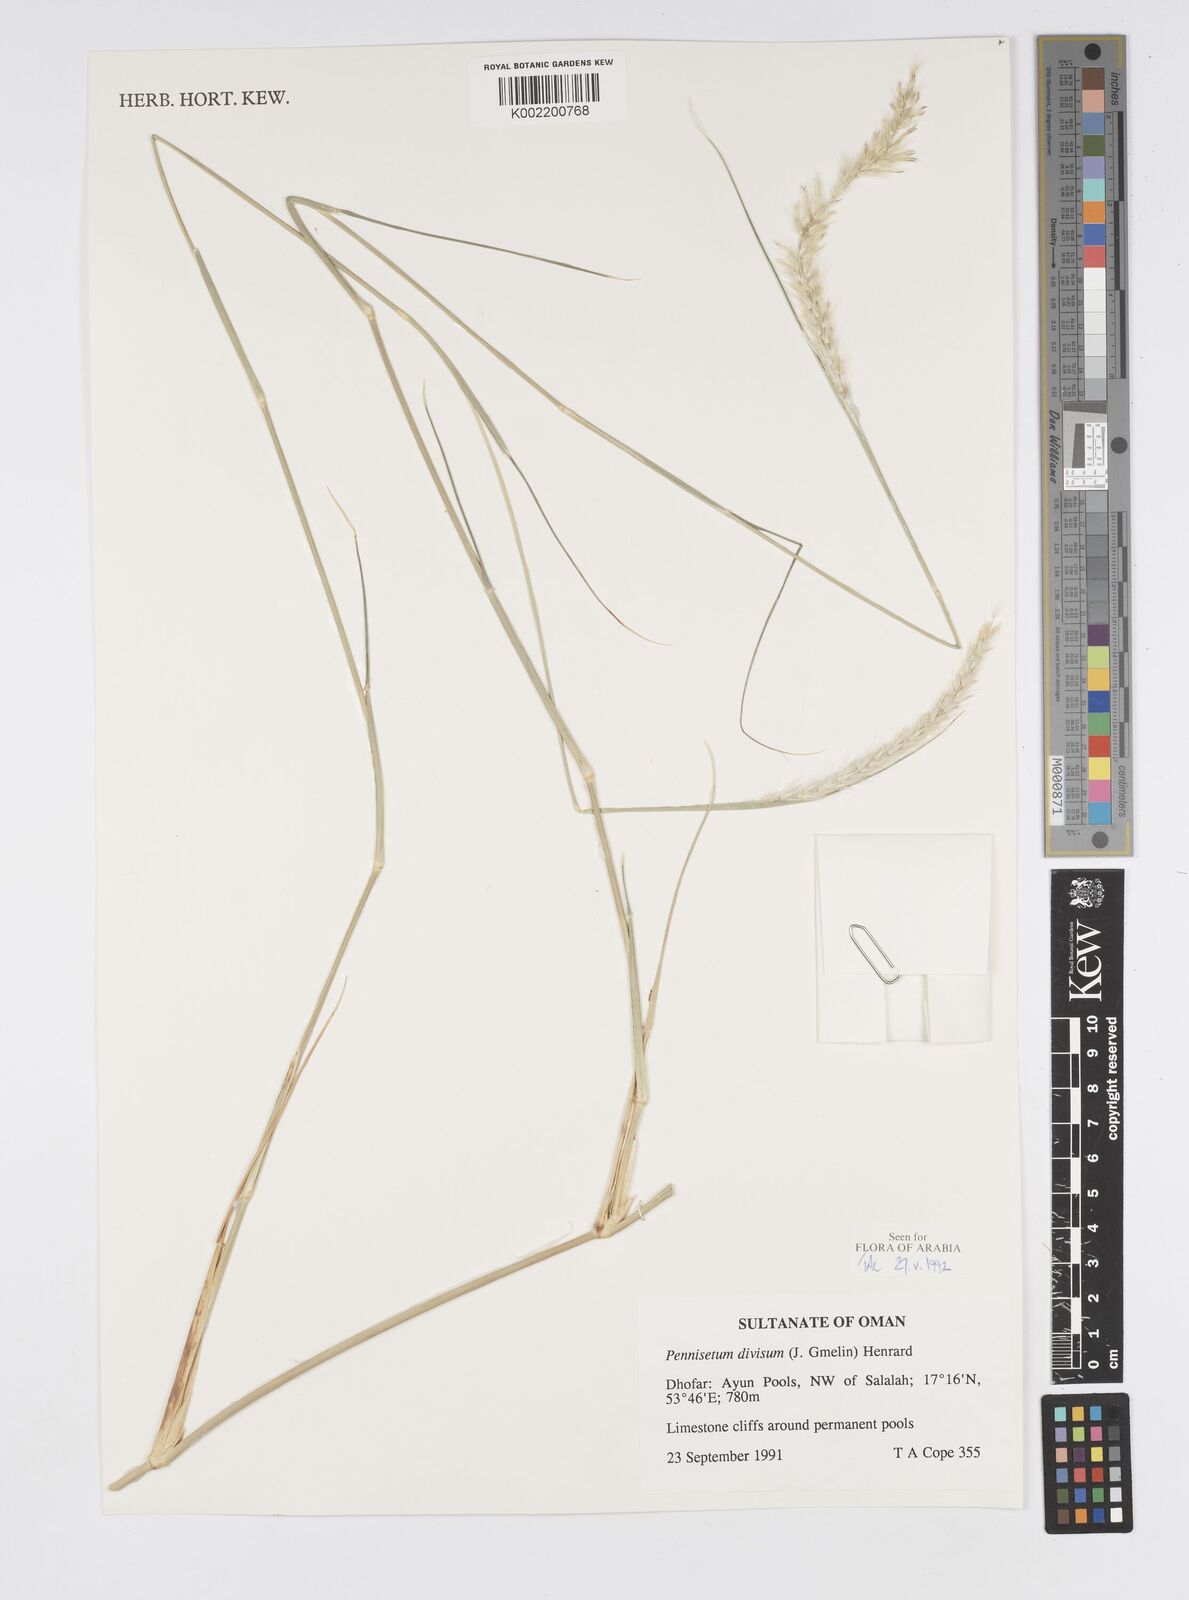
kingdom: Plantae
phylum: Tracheophyta
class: Liliopsida
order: Poales
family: Poaceae
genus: Cenchrus
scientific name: Cenchrus divisus
